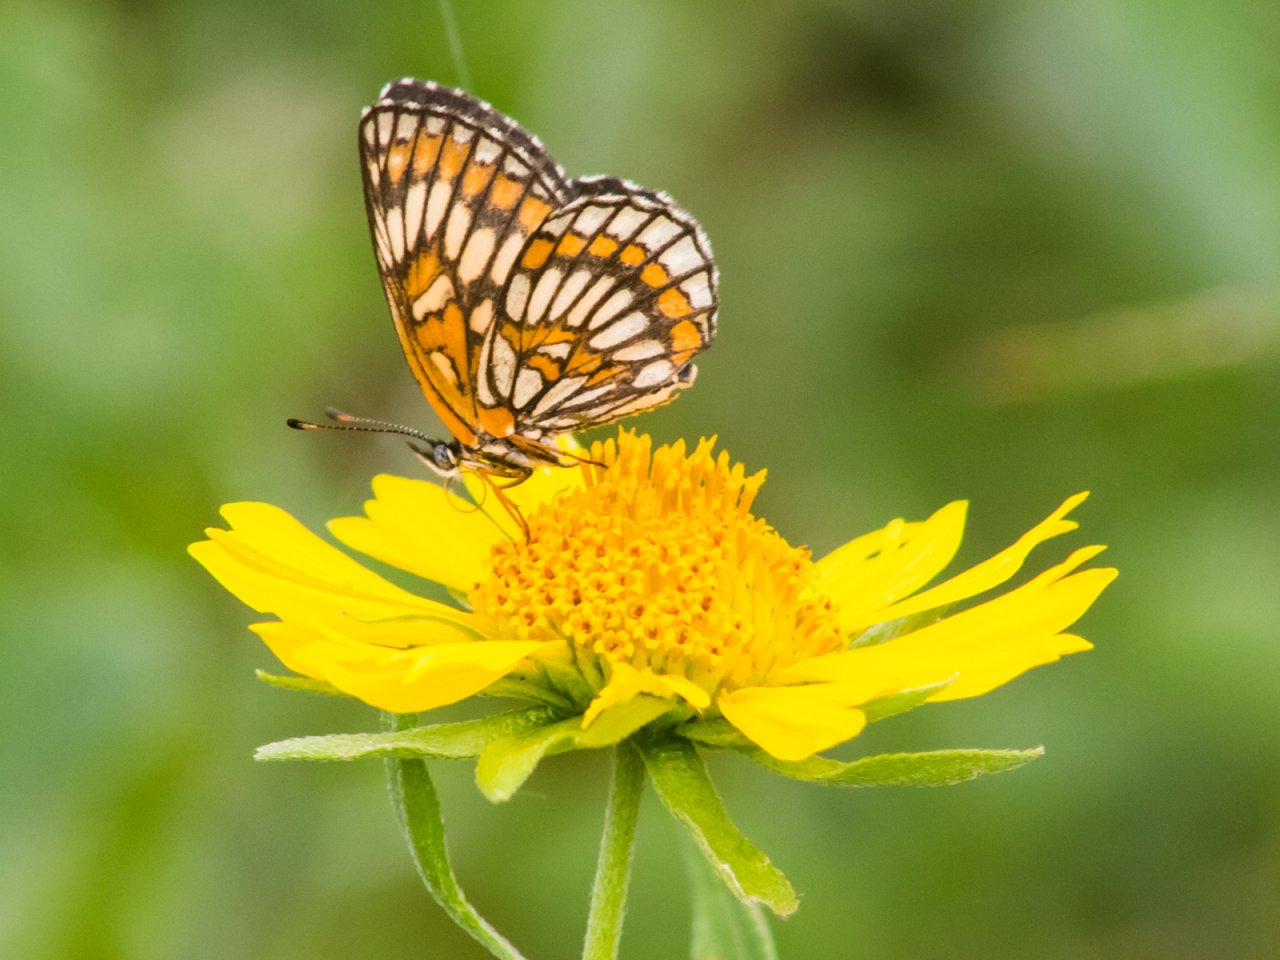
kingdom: Animalia
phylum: Arthropoda
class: Insecta
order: Lepidoptera
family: Nymphalidae
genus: Thessalia
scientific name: Thessalia theona
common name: Theona Checkerspot
